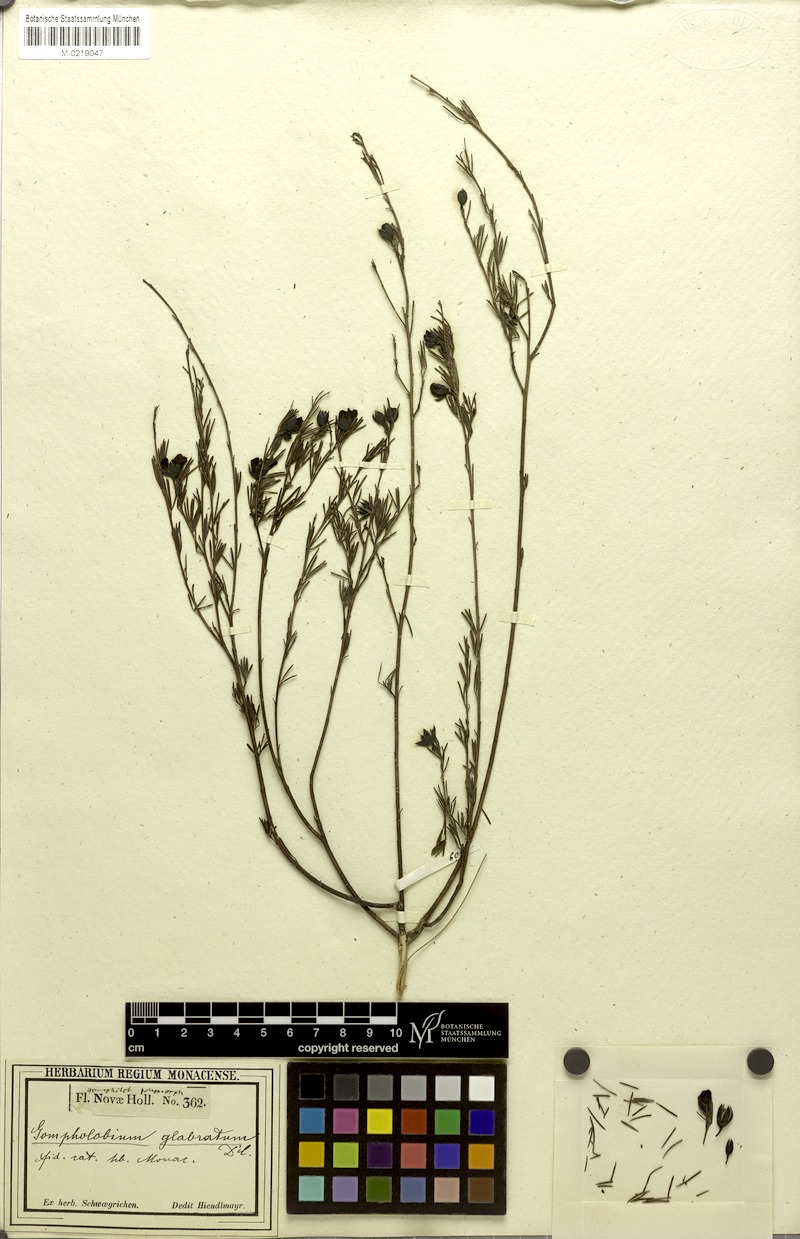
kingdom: Plantae
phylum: Tracheophyta
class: Magnoliopsida
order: Fabales
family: Fabaceae
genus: Gompholobium
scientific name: Gompholobium glabratum
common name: Dainty wedge pea
